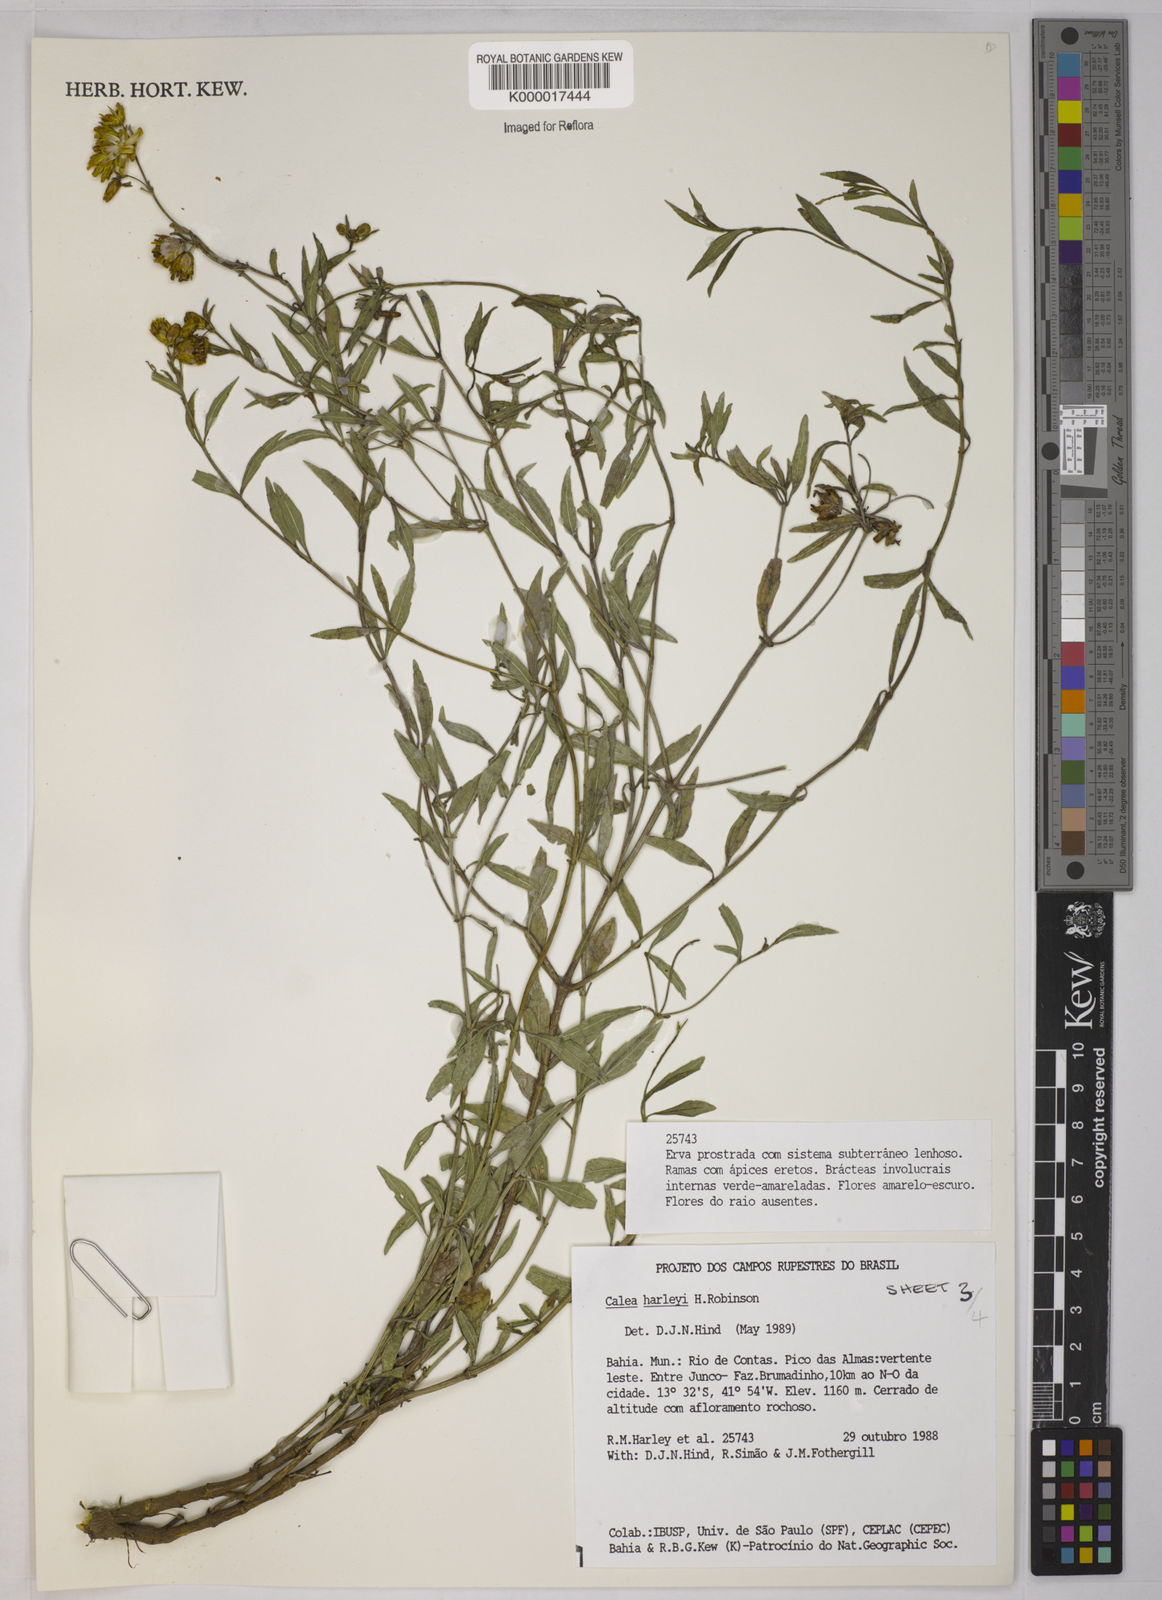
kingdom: Plantae
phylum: Tracheophyta
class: Magnoliopsida
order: Asterales
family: Asteraceae
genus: Calea
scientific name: Calea harleyi
